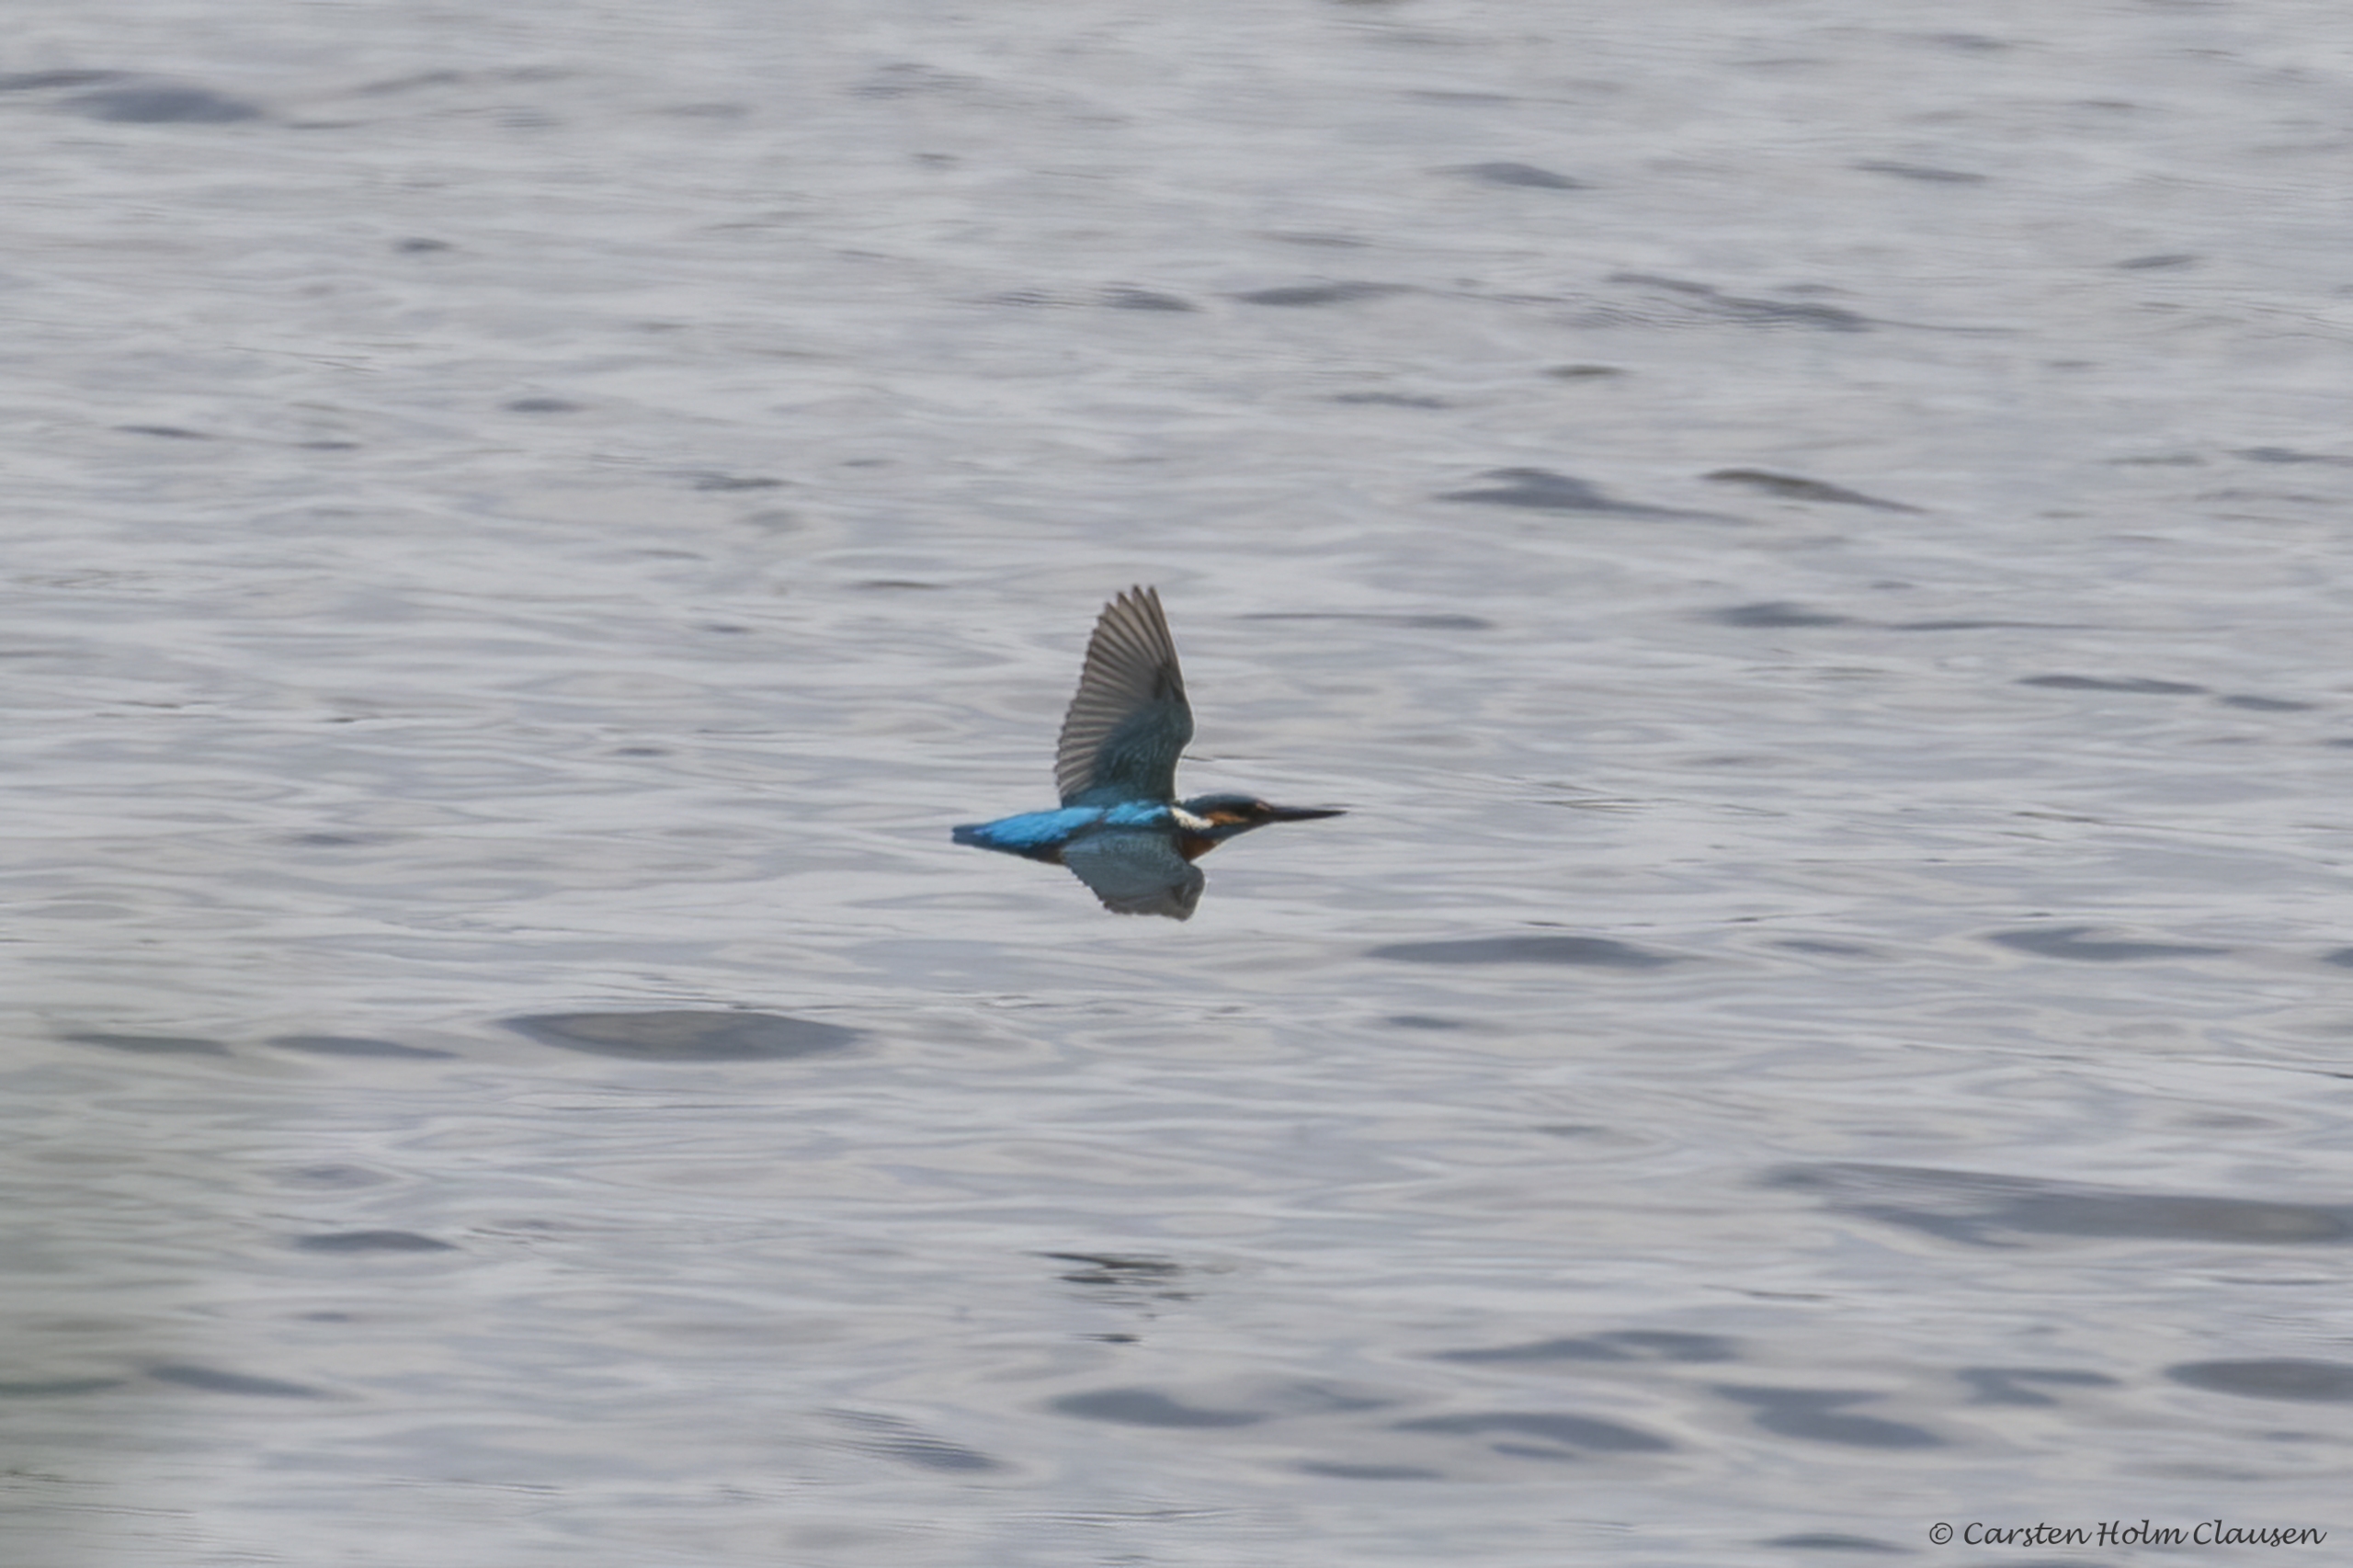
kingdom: Animalia
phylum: Chordata
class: Aves
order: Coraciiformes
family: Alcedinidae
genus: Alcedo
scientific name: Alcedo atthis
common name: Isfugl
